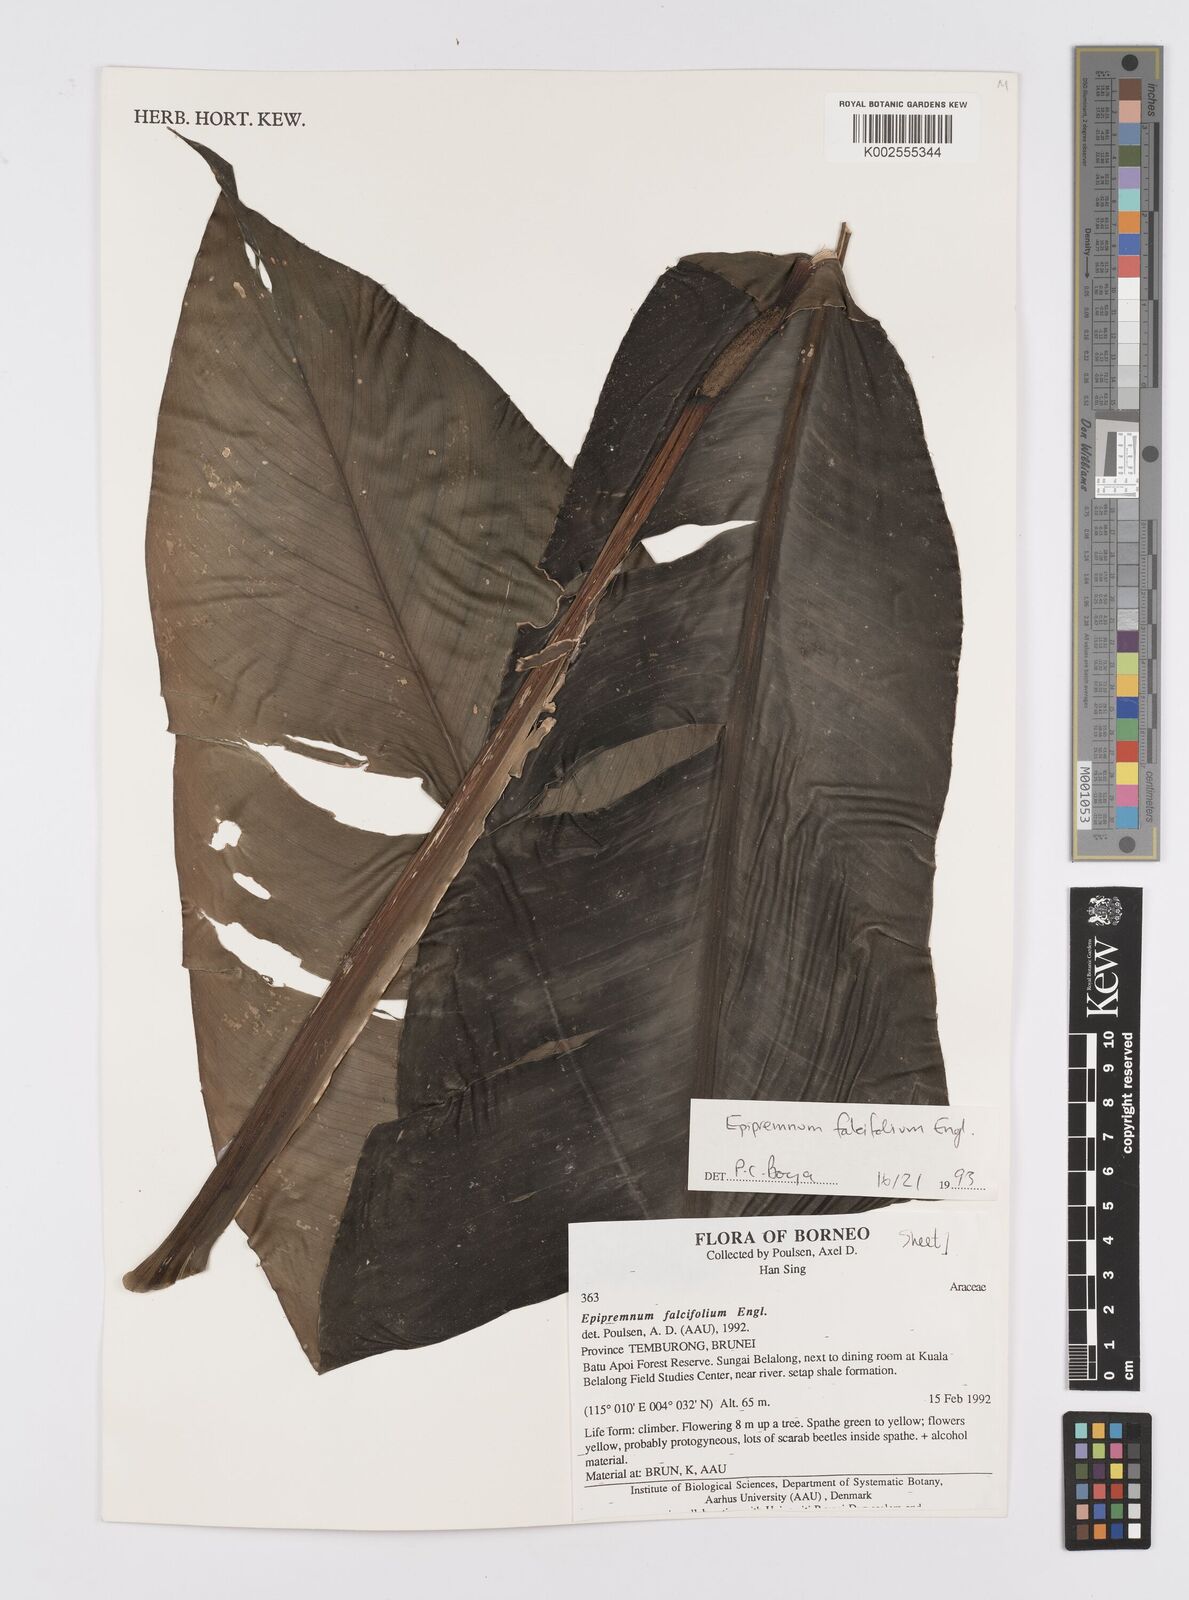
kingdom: Plantae
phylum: Tracheophyta
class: Liliopsida
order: Alismatales
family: Araceae
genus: Epipremnum
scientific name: Epipremnum falcifolium
